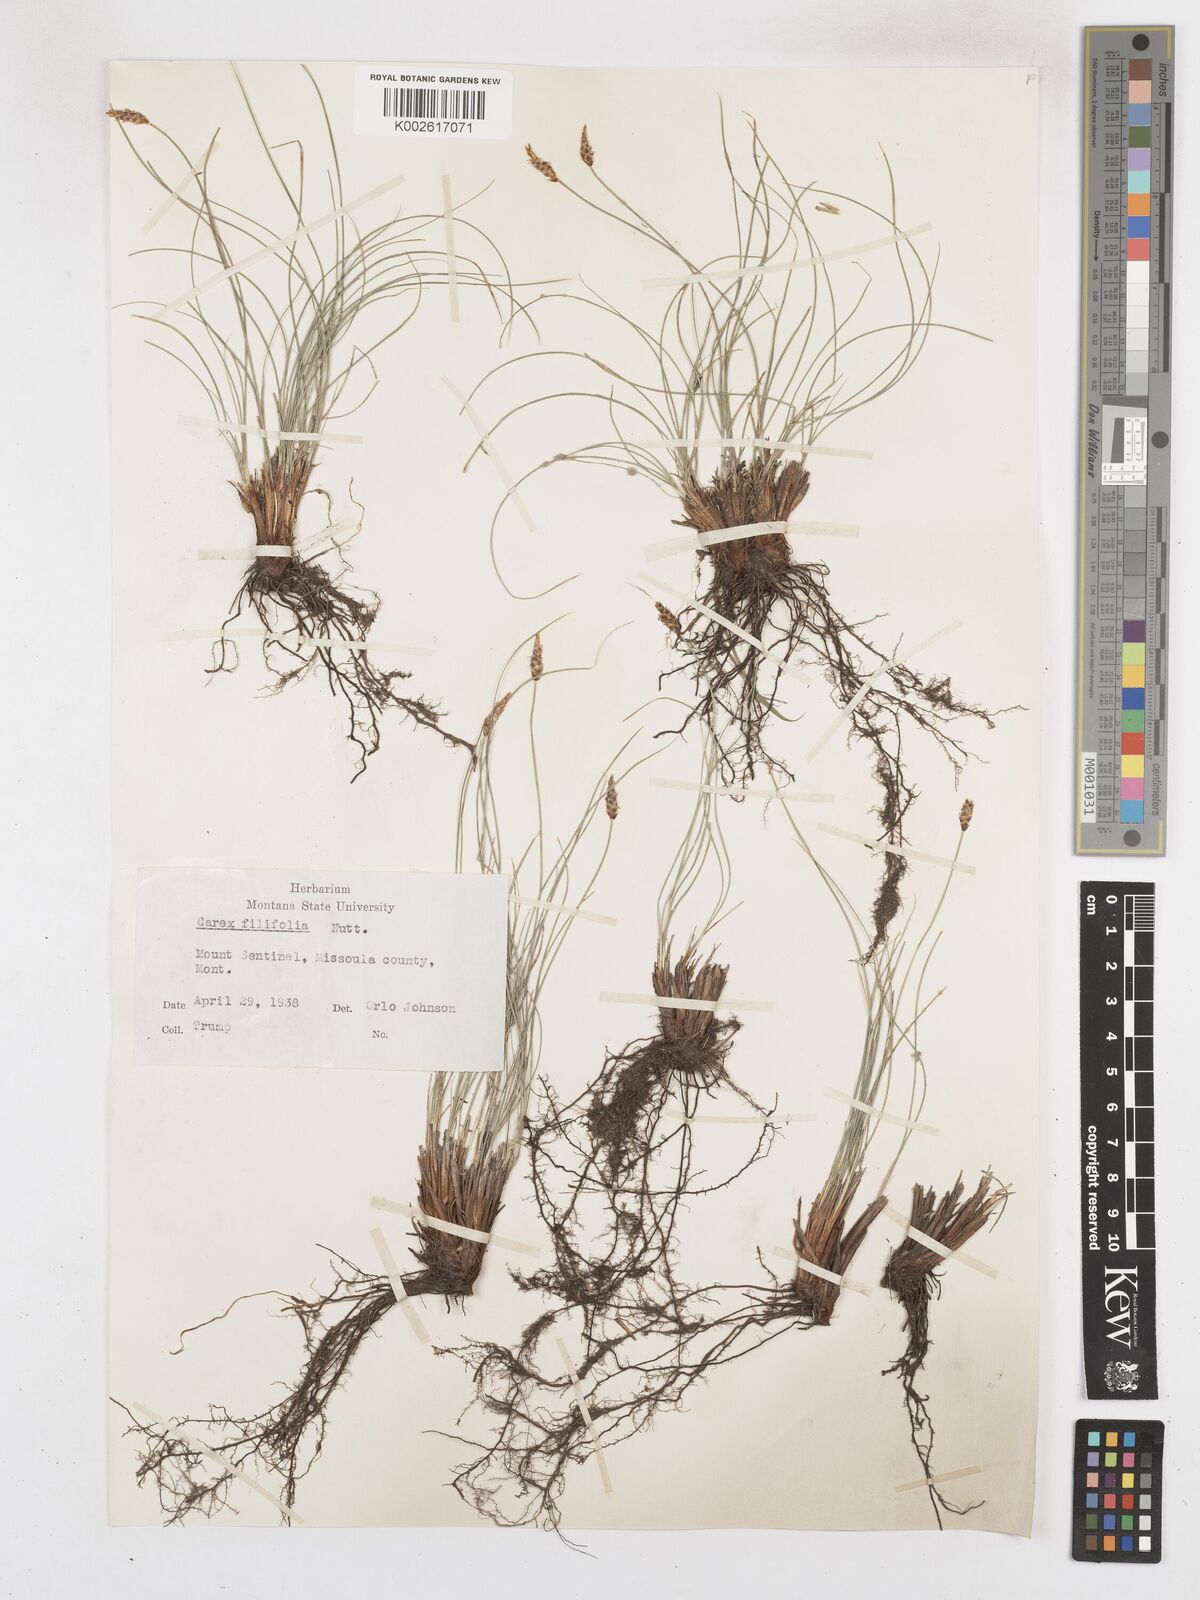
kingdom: Plantae
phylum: Tracheophyta
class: Liliopsida
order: Poales
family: Cyperaceae
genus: Carex
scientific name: Carex filifolia
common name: Threadleaf sedge
